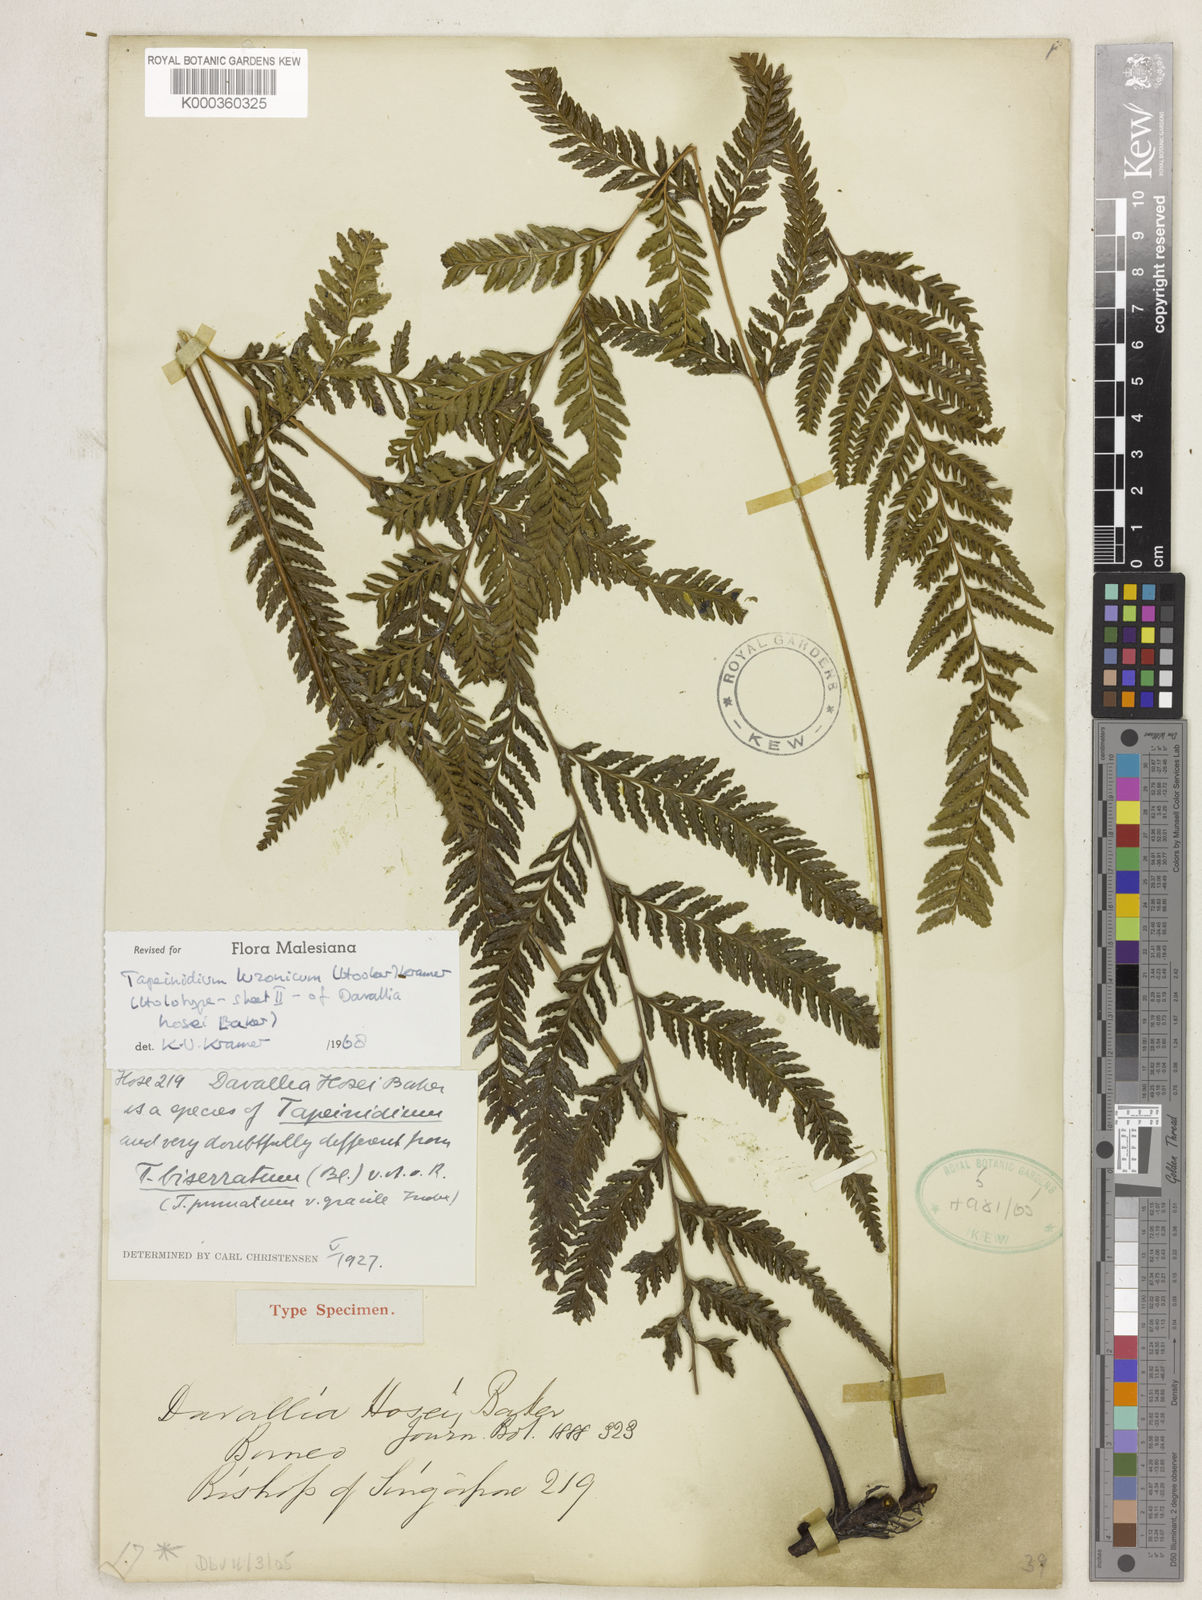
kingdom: Plantae
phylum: Tracheophyta
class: Polypodiopsida
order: Polypodiales
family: Lindsaeaceae
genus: Tapeinidium
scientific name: Tapeinidium luzonicum
